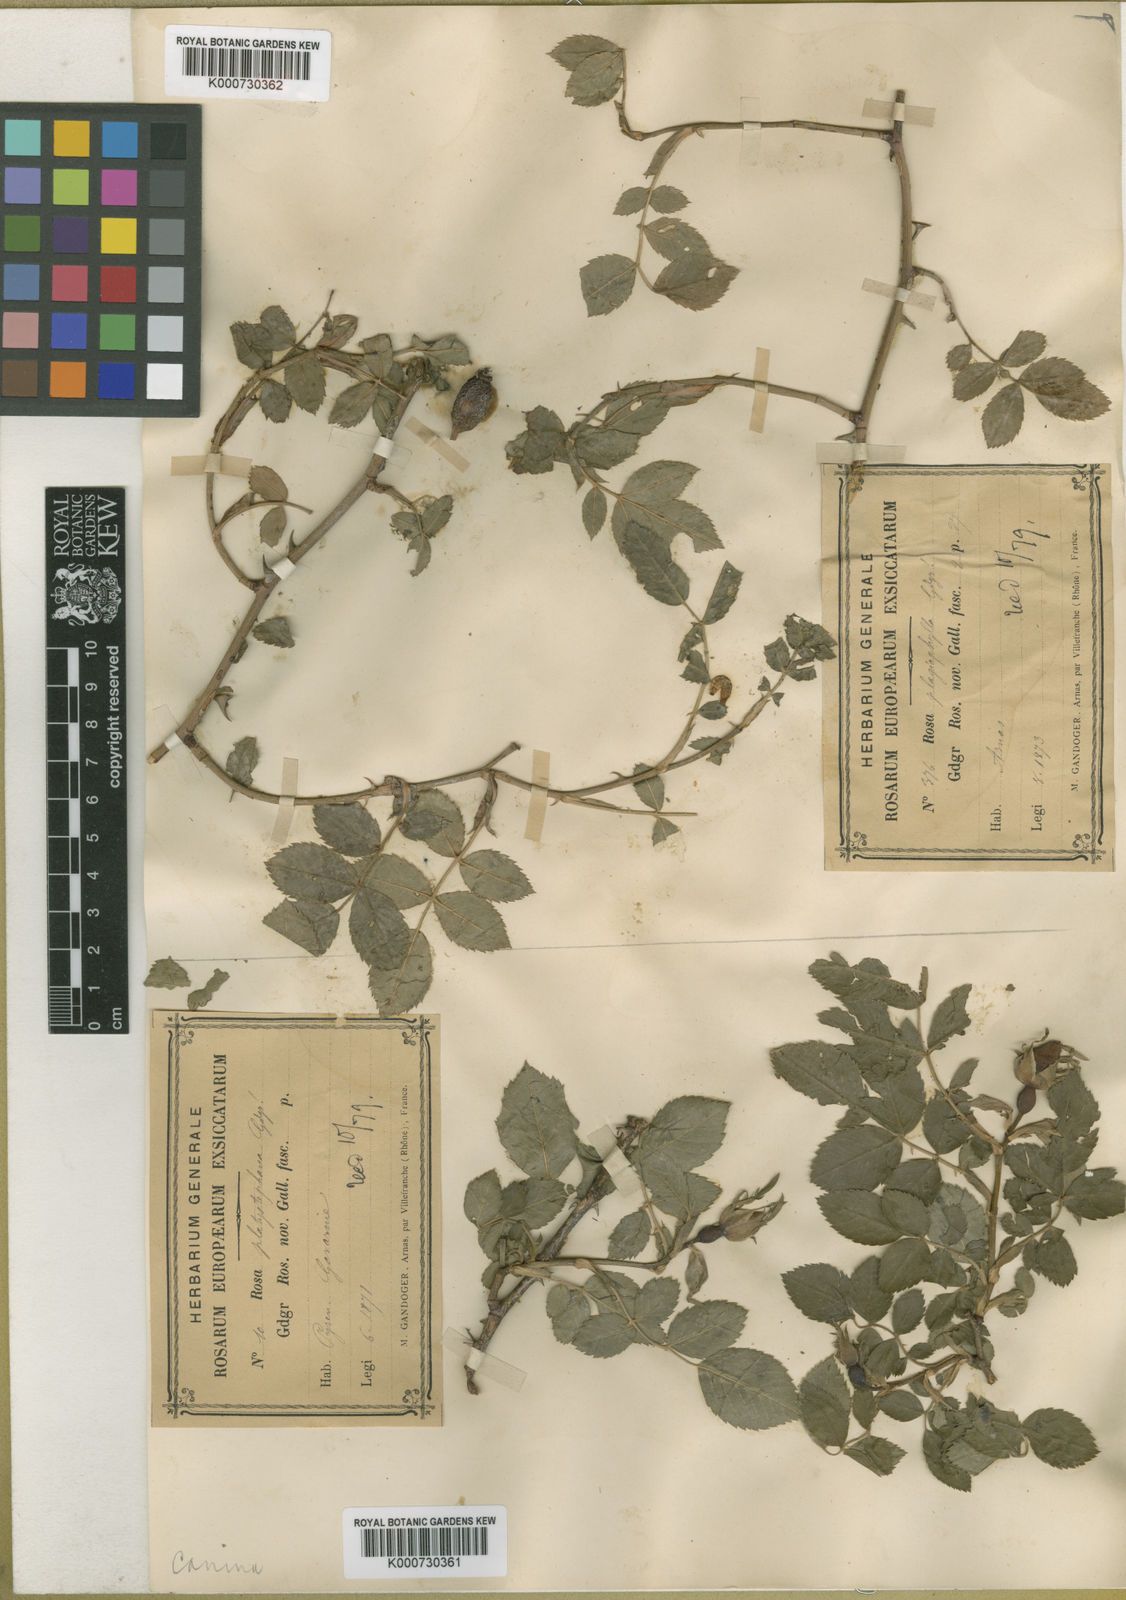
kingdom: Plantae
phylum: Tracheophyta
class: Magnoliopsida
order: Rosales
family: Rosaceae
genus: Rosa
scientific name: Rosa canina
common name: Dog rose
